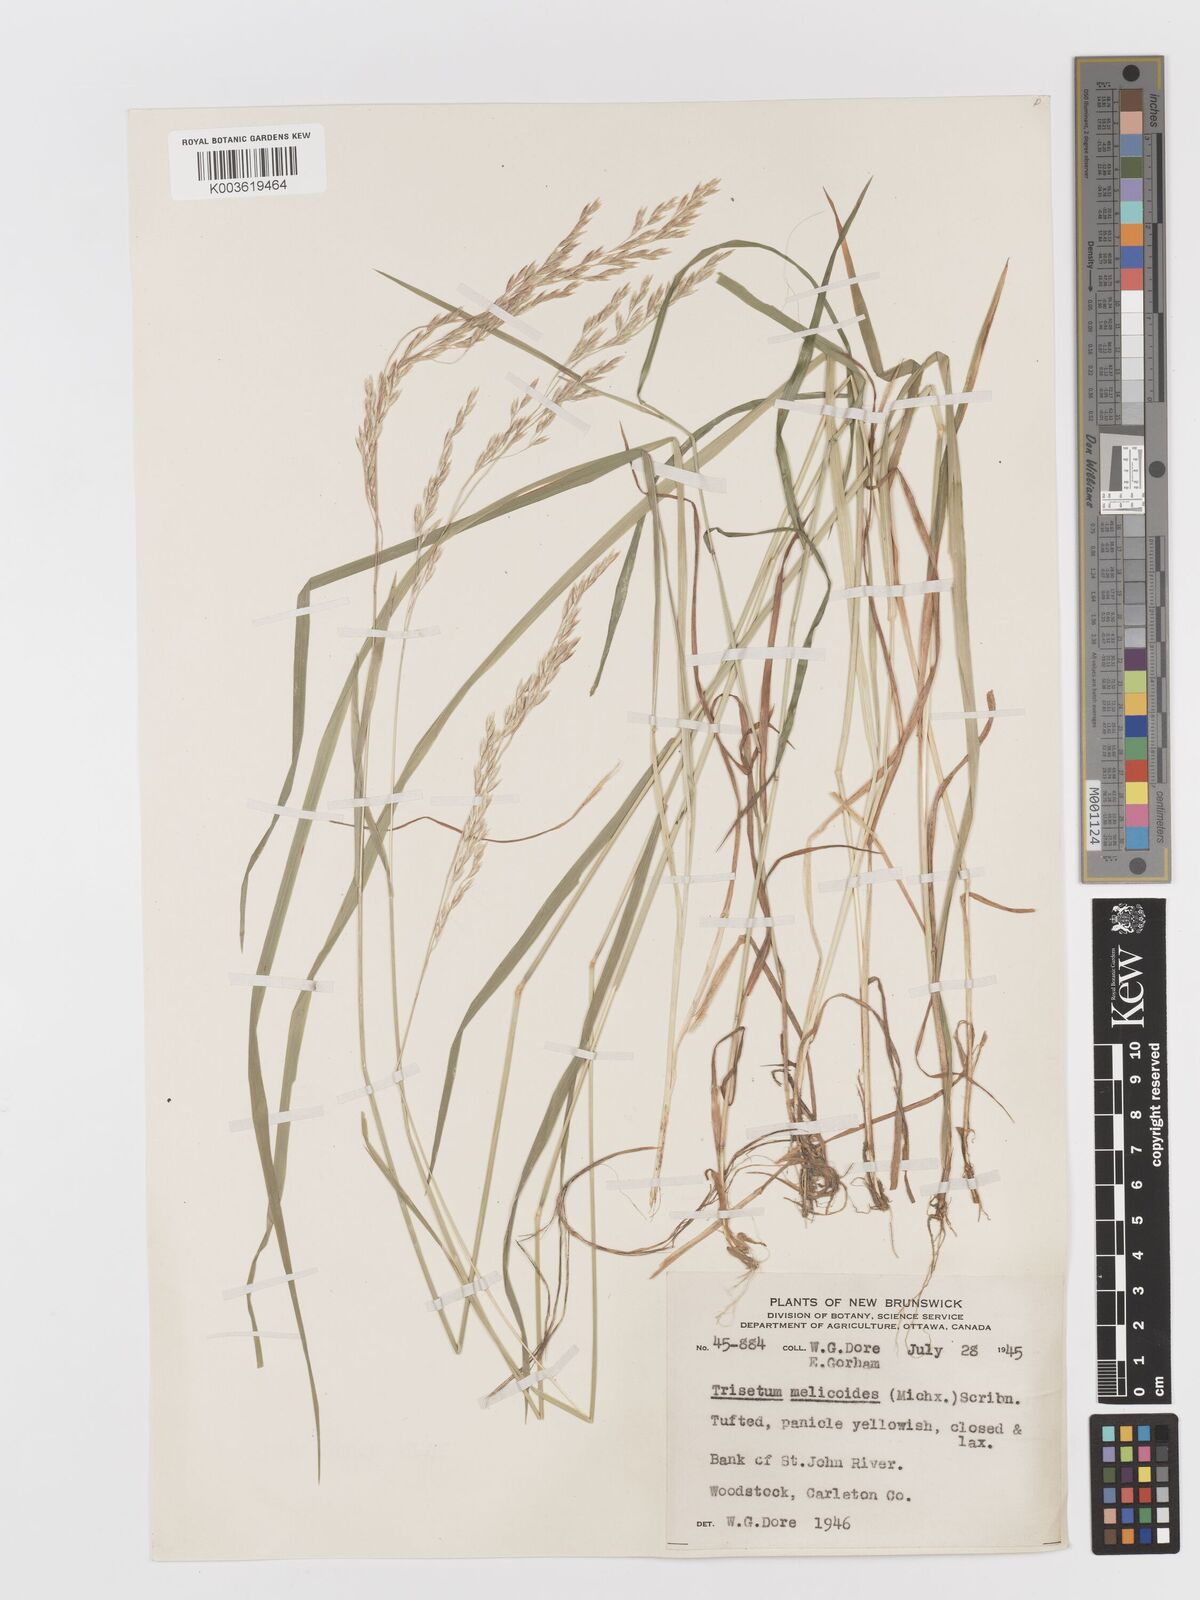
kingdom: Plantae
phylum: Tracheophyta
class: Liliopsida
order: Poales
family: Poaceae
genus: Graphephorum
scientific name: Graphephorum melicoides
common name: False melic
